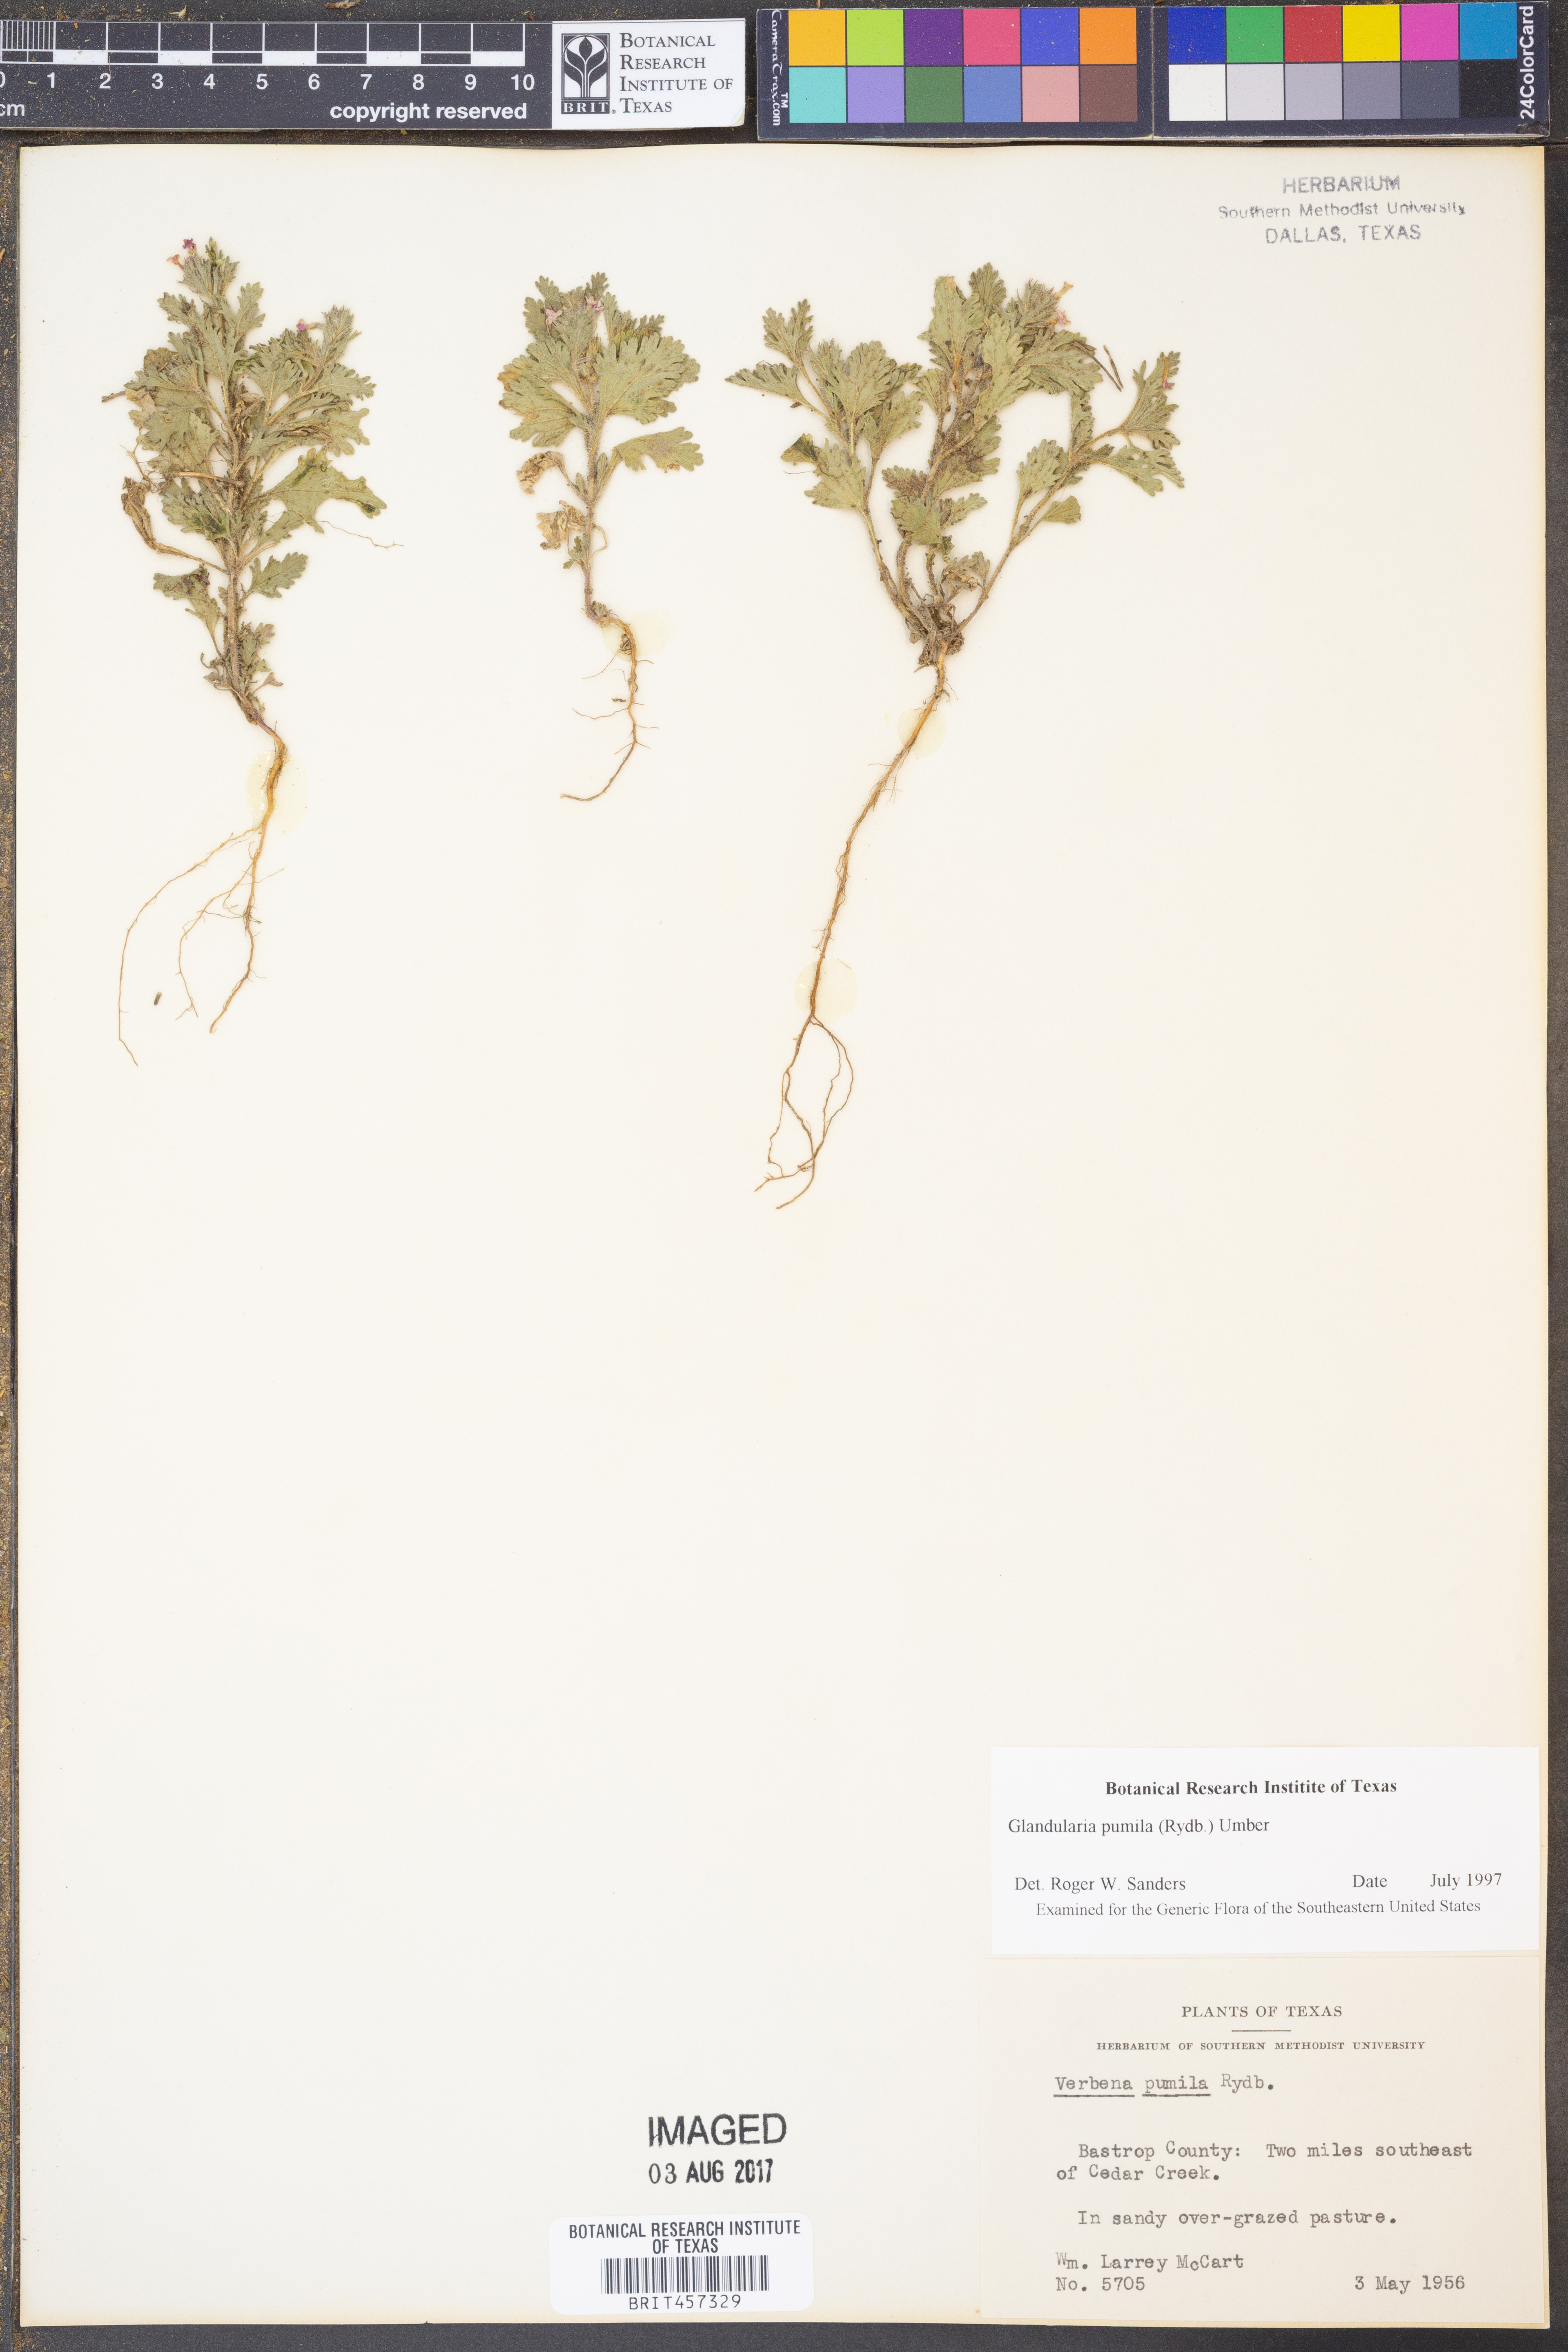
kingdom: Plantae
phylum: Tracheophyta
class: Magnoliopsida
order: Lamiales
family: Verbenaceae
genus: Verbena
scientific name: Verbena pumila
